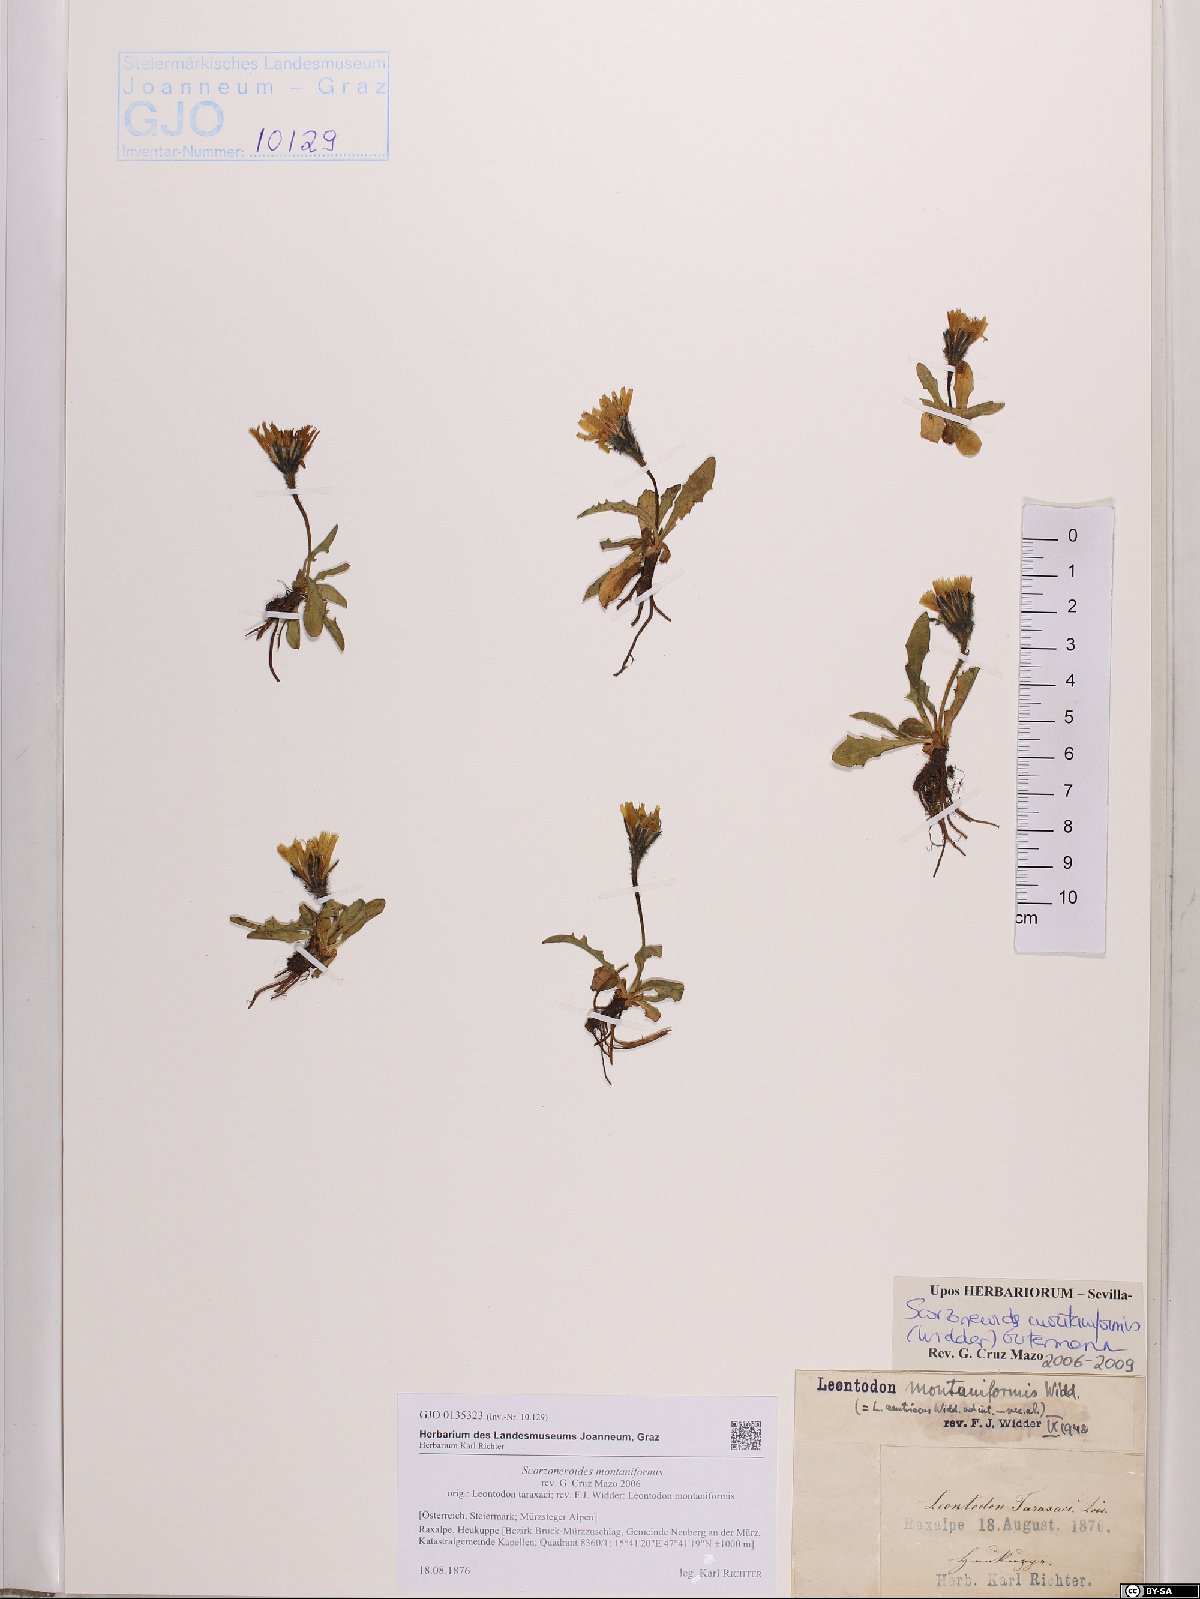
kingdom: Plantae
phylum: Tracheophyta
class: Magnoliopsida
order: Asterales
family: Asteraceae
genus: Scorzoneroides
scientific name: Scorzoneroides montana
